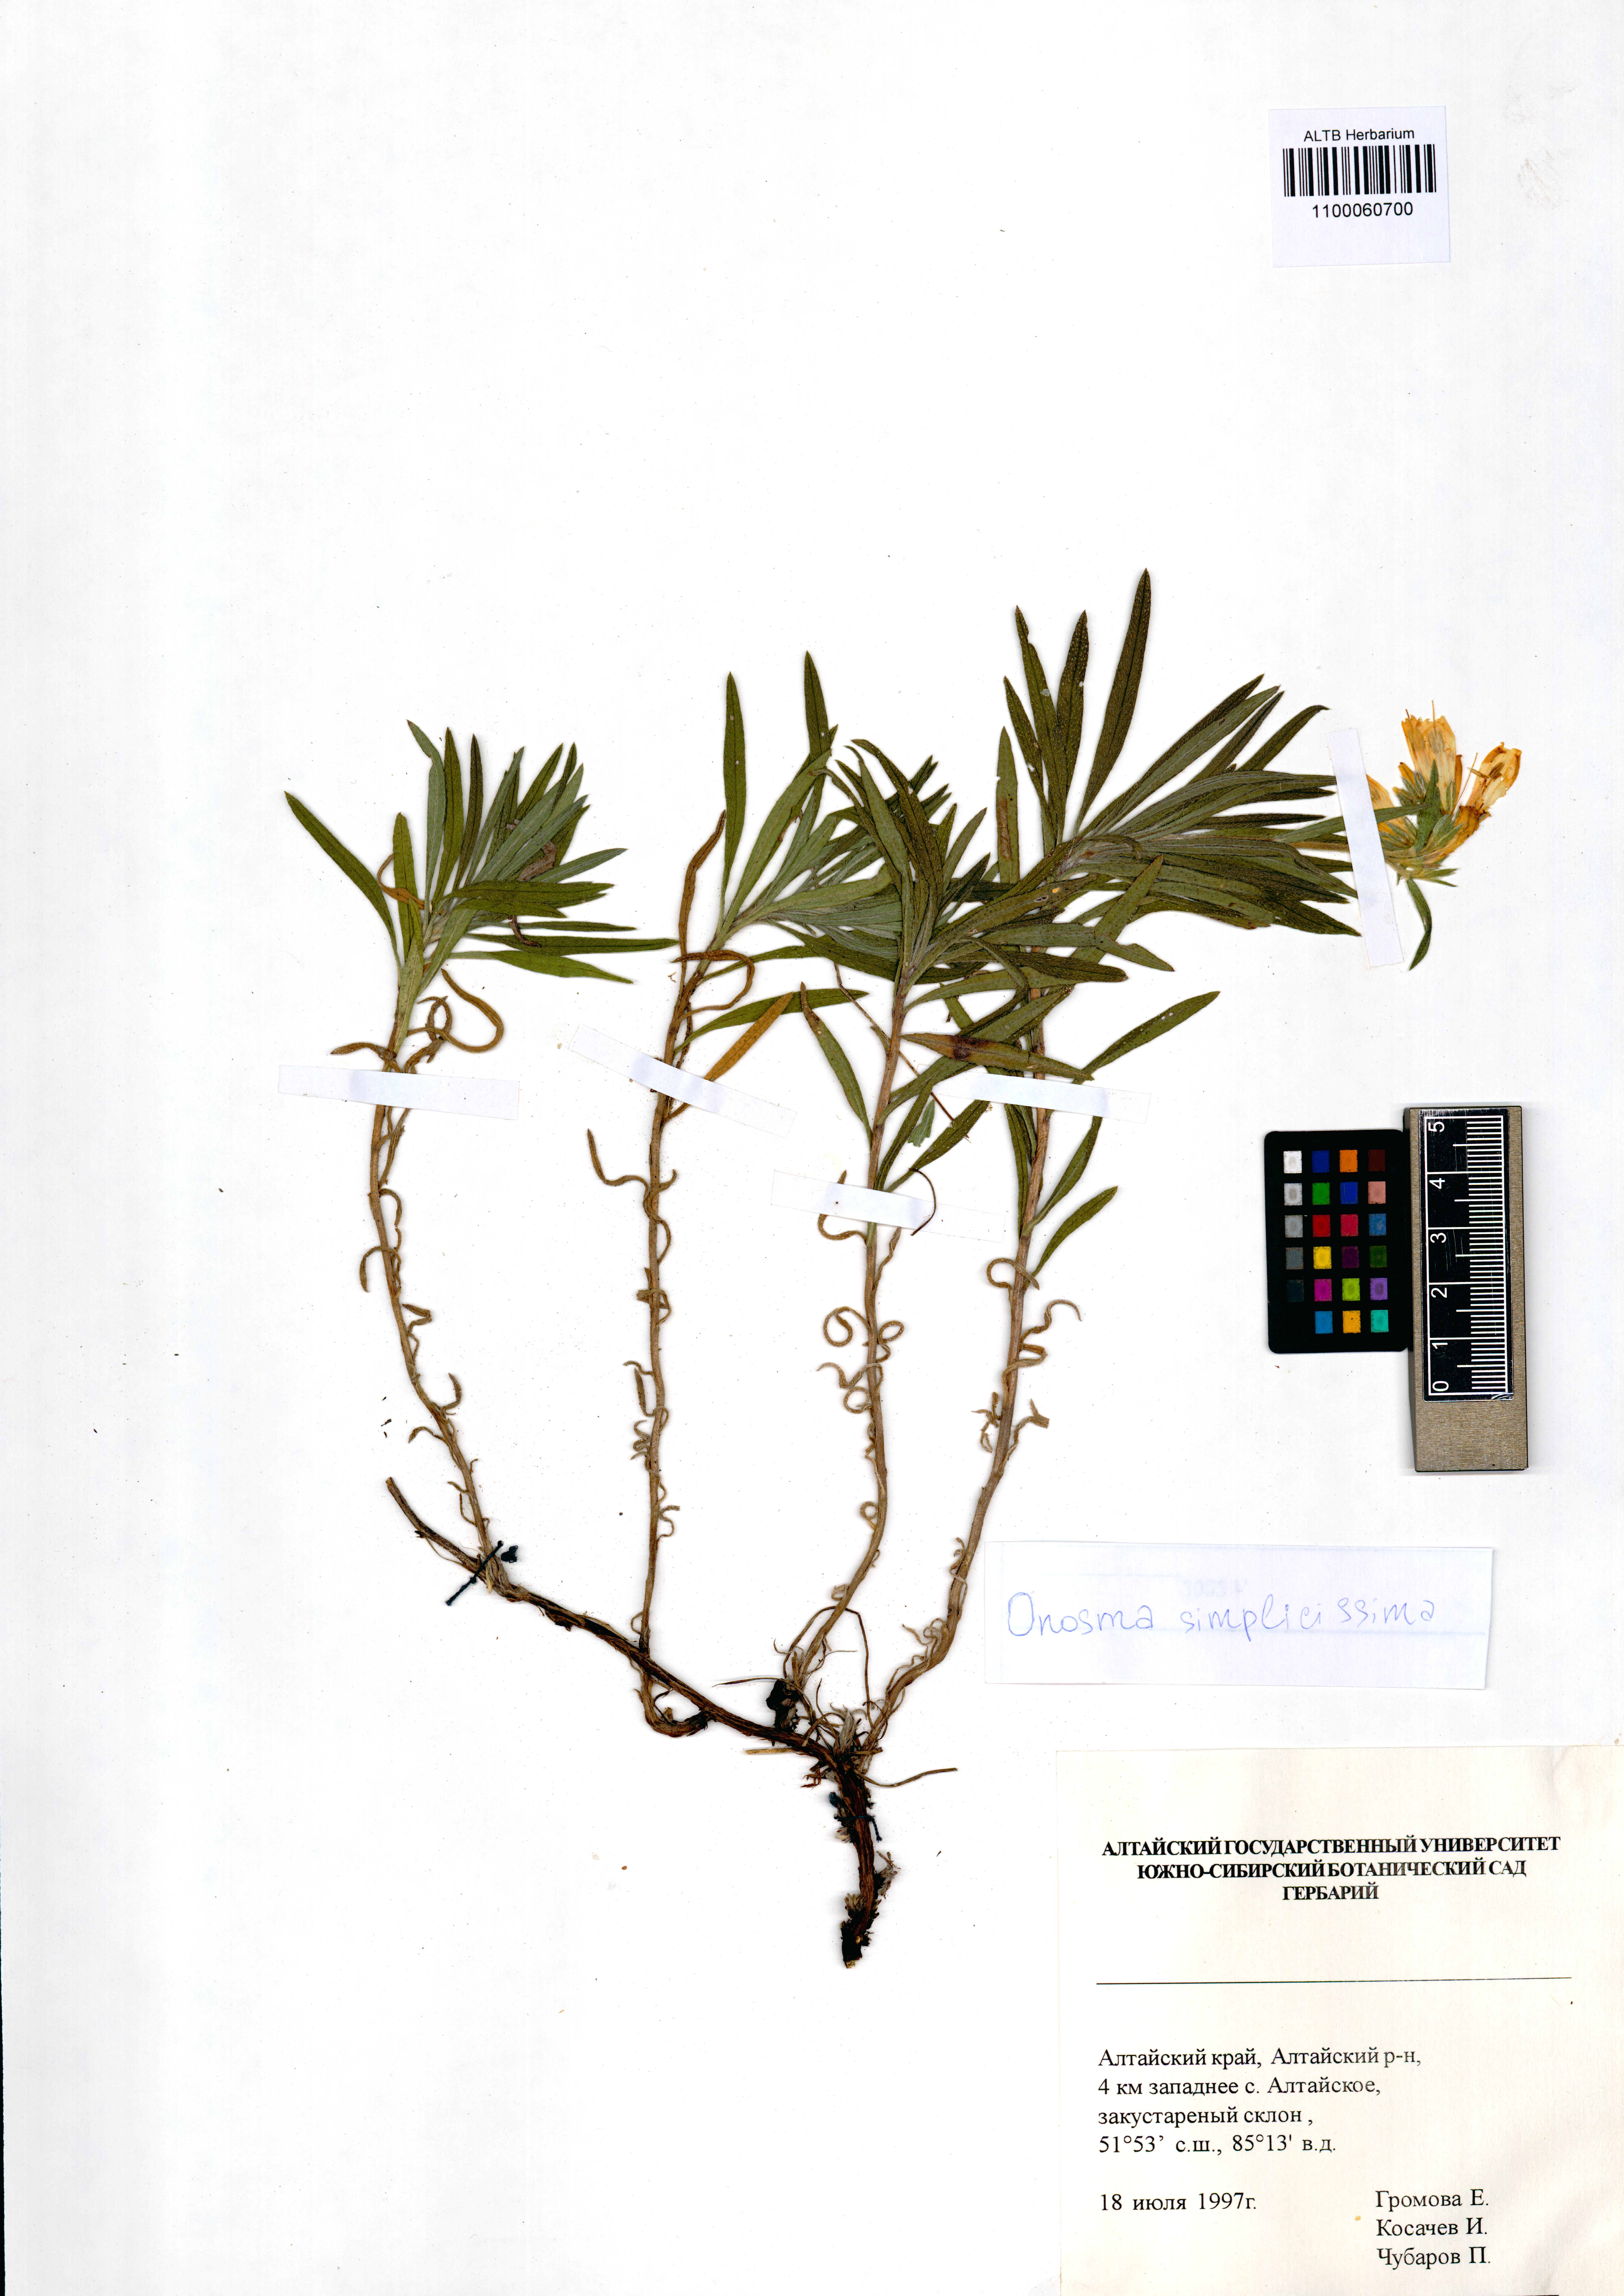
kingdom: Plantae
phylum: Tracheophyta
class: Magnoliopsida
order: Boraginales
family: Boraginaceae
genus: Onosma
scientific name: Onosma simplicissima
